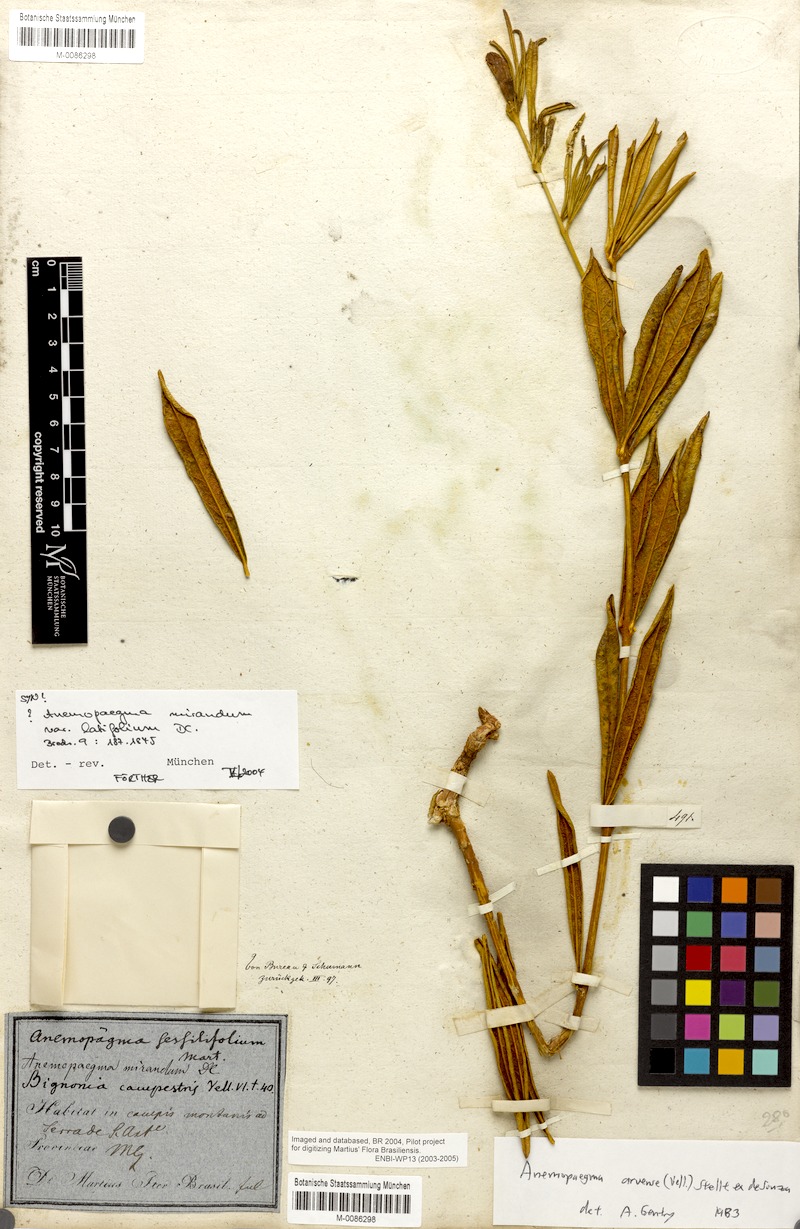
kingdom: Plantae
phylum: Tracheophyta
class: Magnoliopsida
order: Lamiales
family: Bignoniaceae
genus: Anemopaegma
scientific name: Anemopaegma arvense
